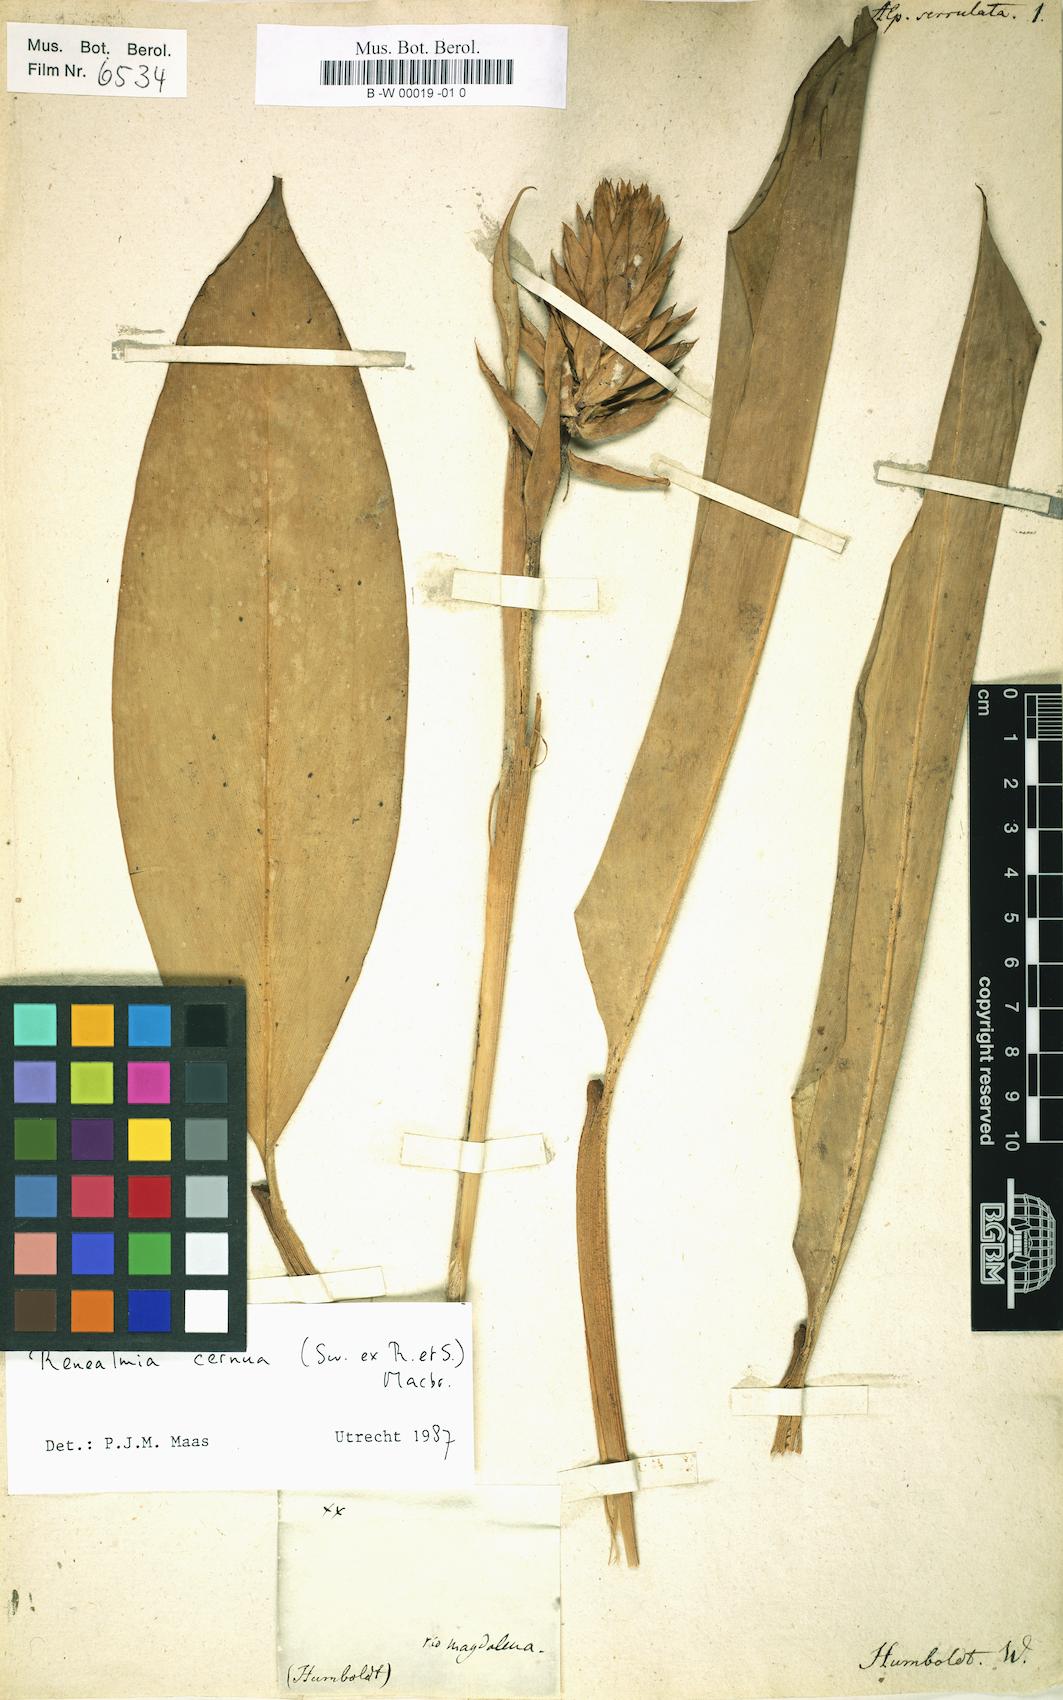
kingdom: Plantae
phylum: Tracheophyta
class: Liliopsida
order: Zingiberales
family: Zingiberaceae
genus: Alpinia
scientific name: Alpinia serrulata
